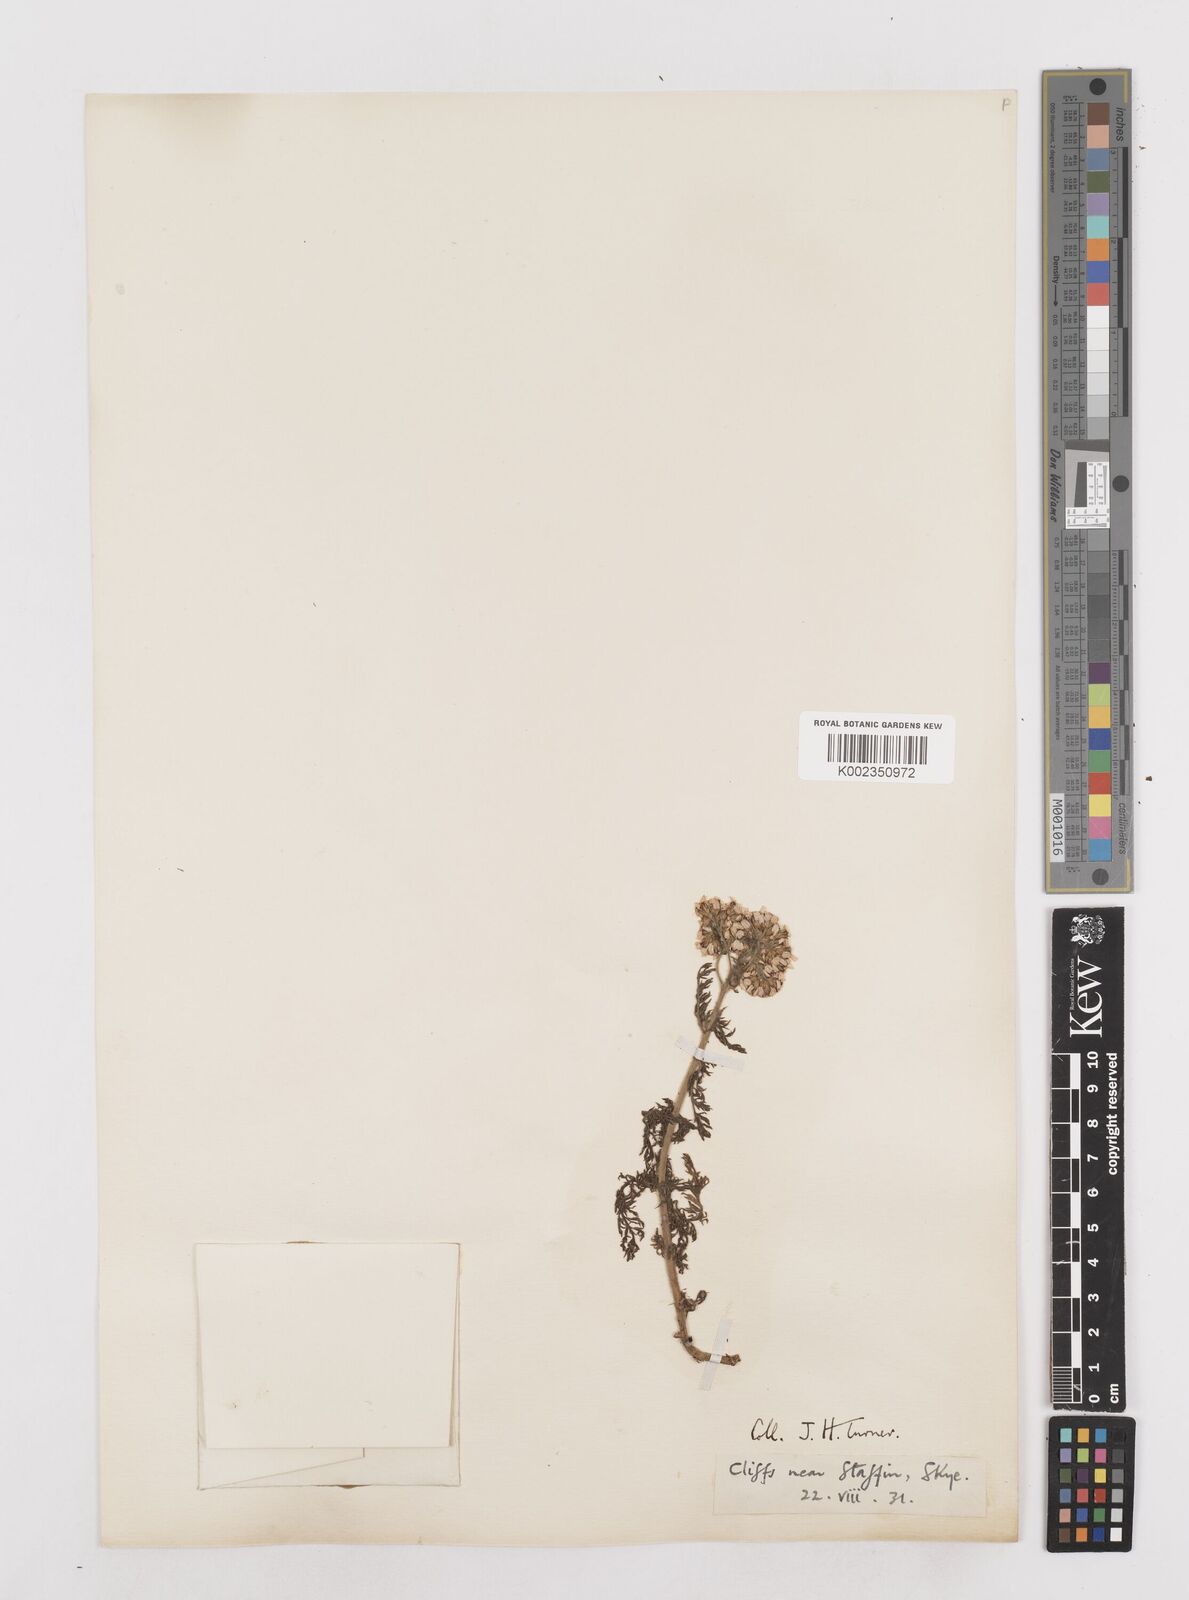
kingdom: Plantae
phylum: Tracheophyta
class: Magnoliopsida
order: Asterales
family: Asteraceae
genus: Achillea
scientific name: Achillea millefolium
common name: Yarrow
